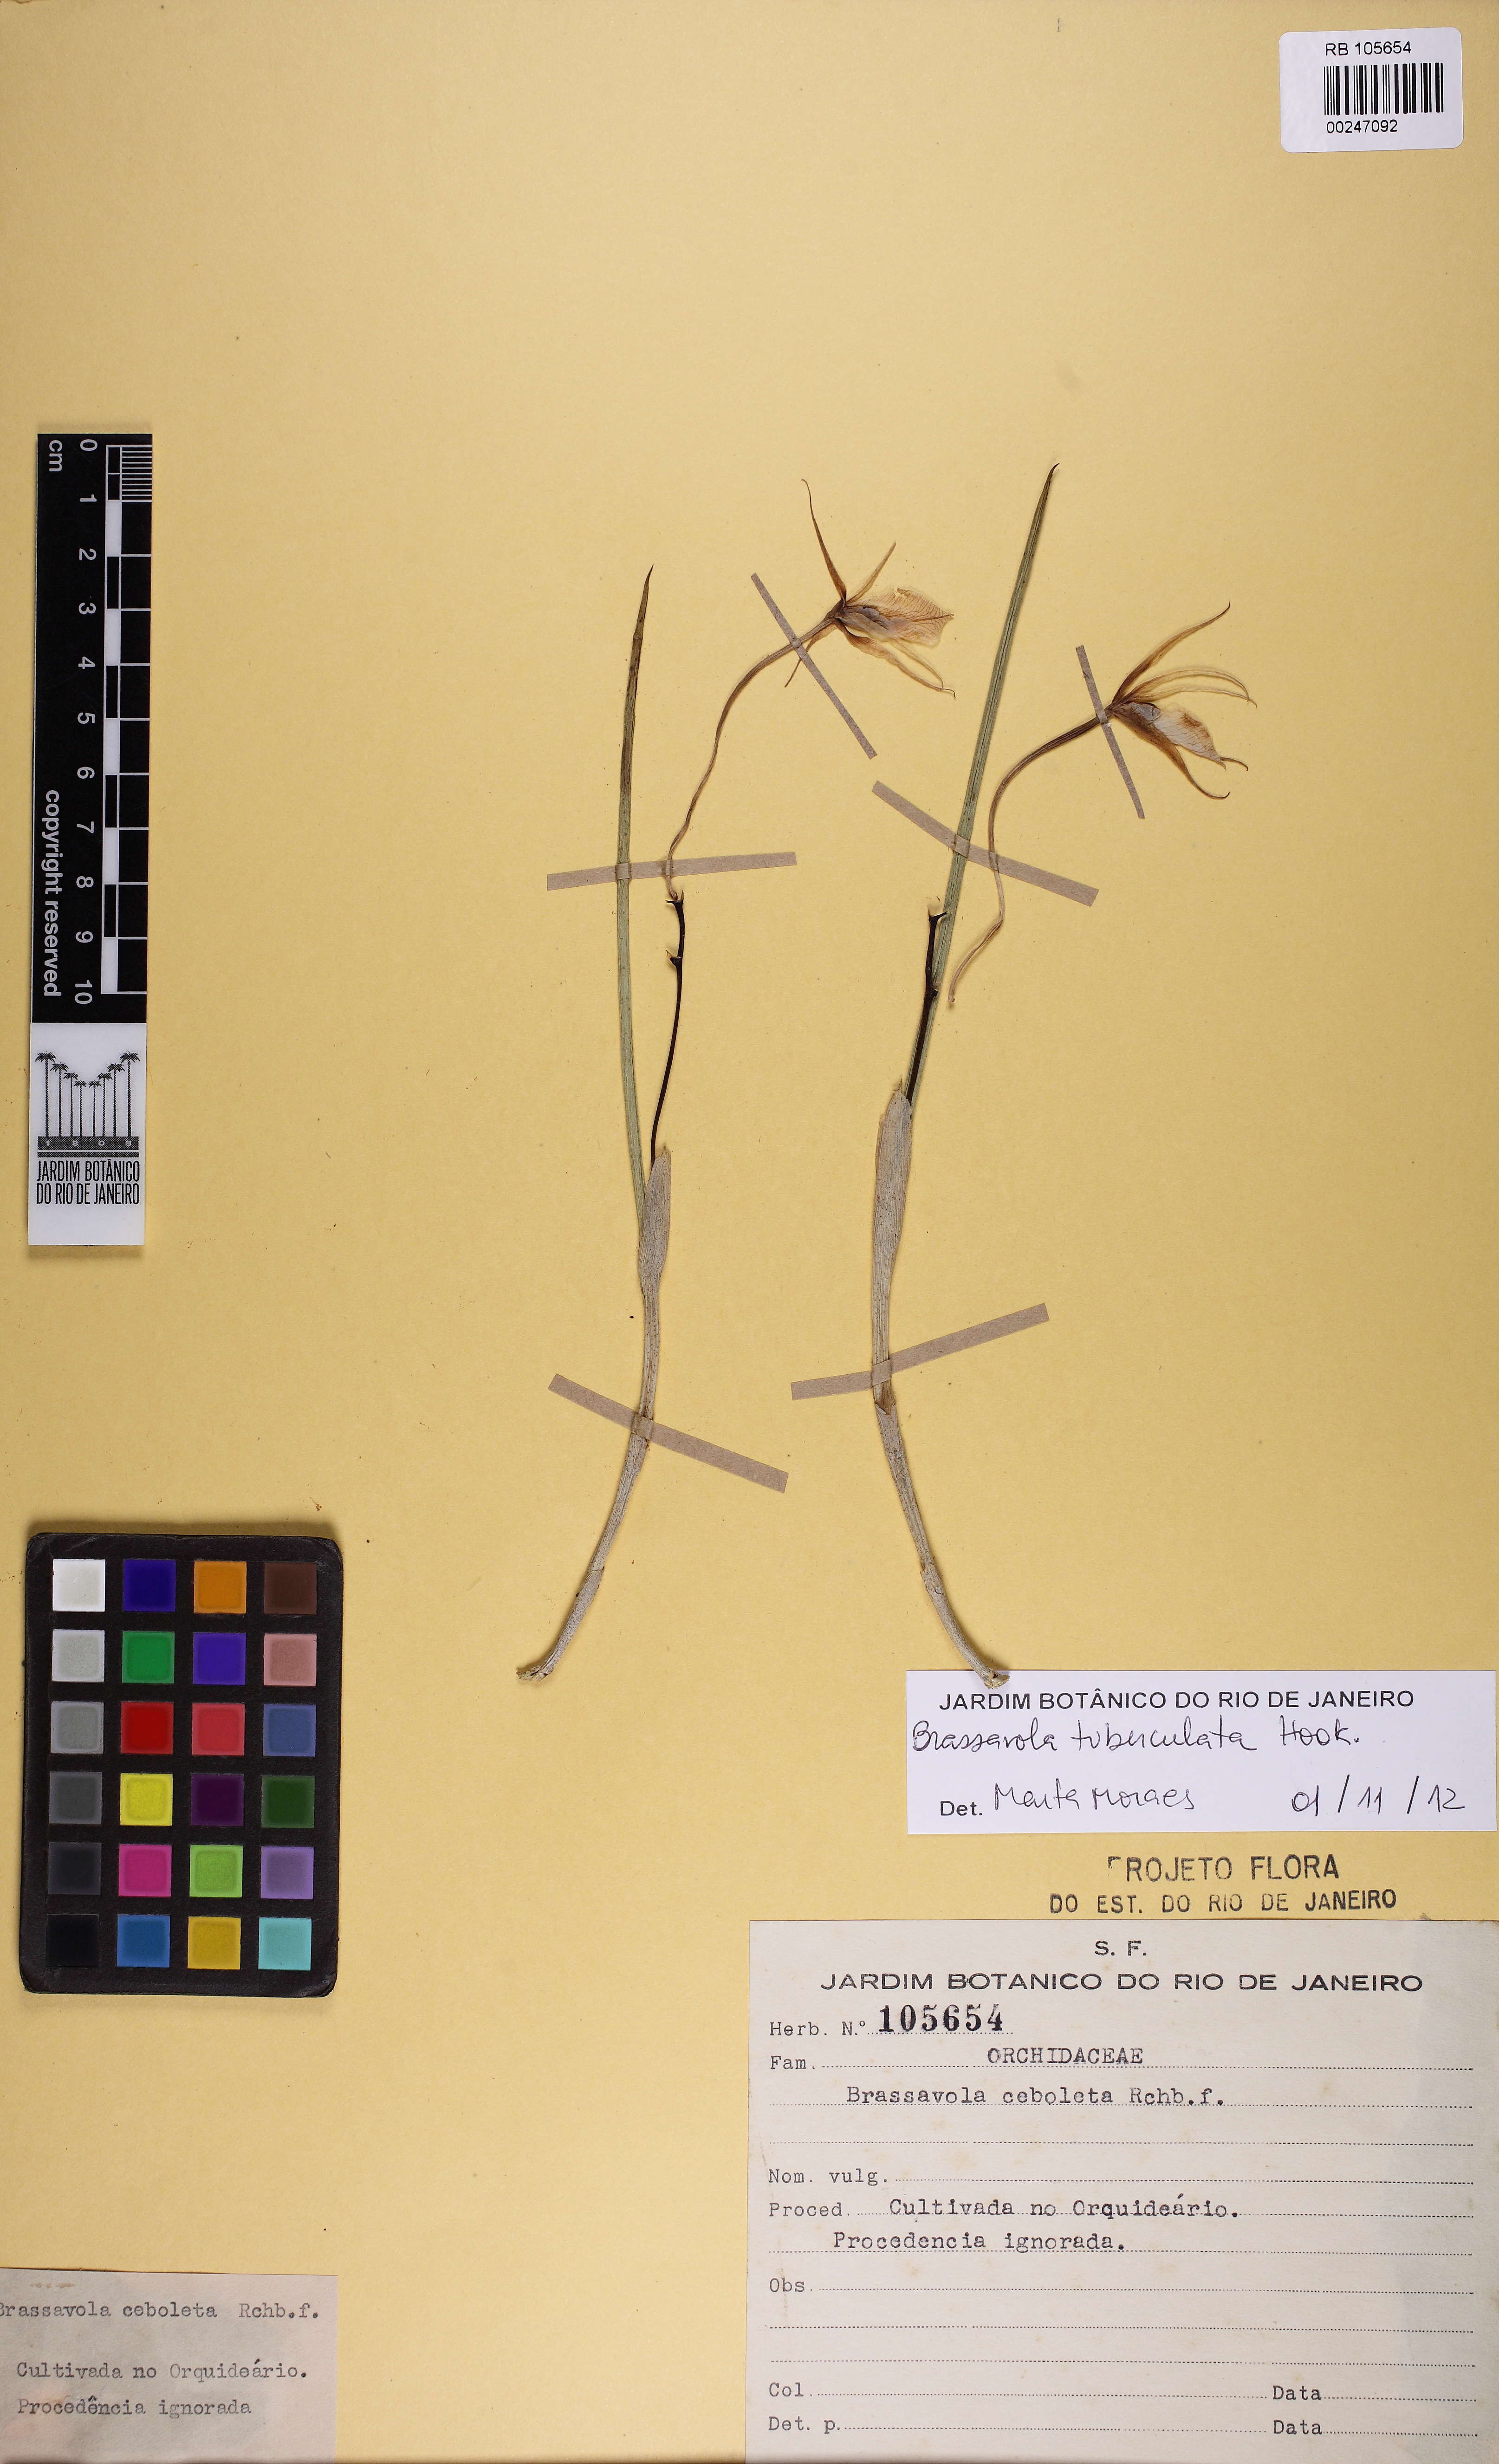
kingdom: Plantae
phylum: Tracheophyta
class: Liliopsida
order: Asparagales
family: Orchidaceae
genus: Brassavola
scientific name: Brassavola tuberculata
